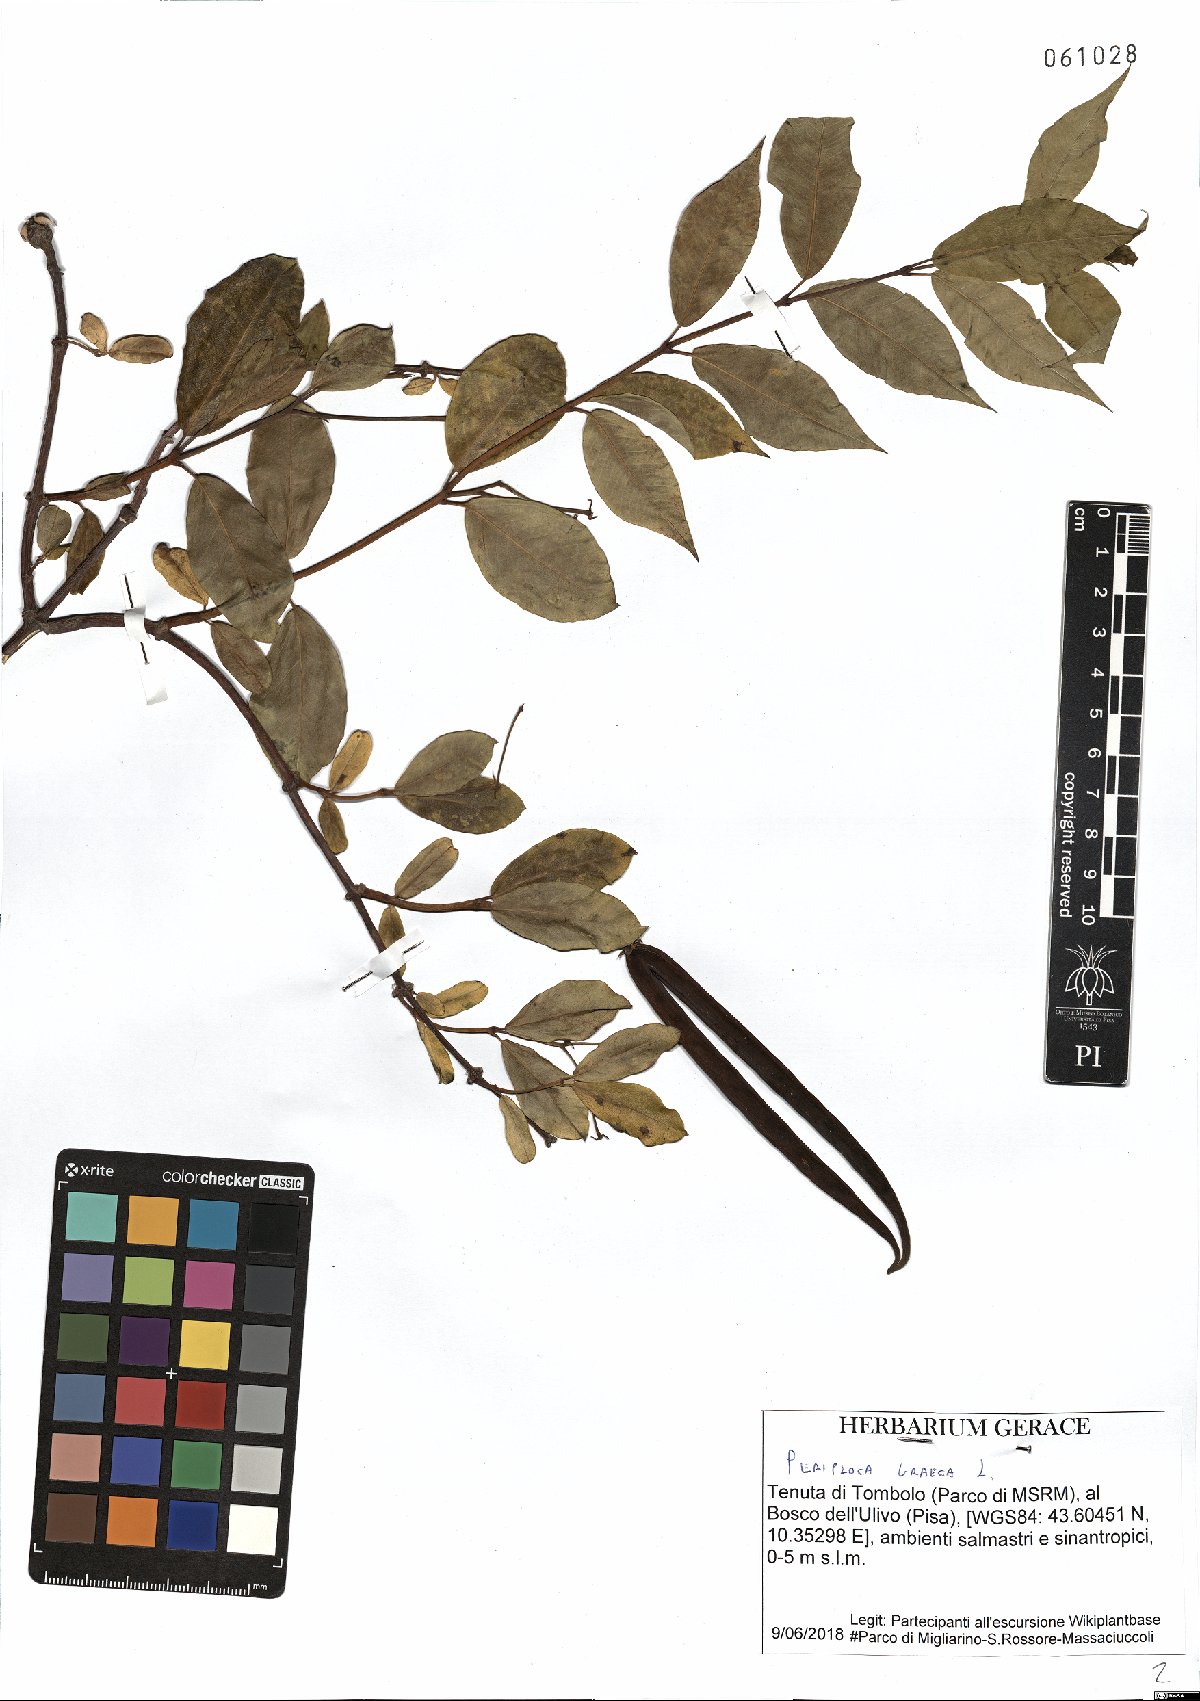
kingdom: Plantae
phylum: Tracheophyta
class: Magnoliopsida
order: Gentianales
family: Apocynaceae
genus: Periploca
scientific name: Periploca graeca
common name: Silkvine
